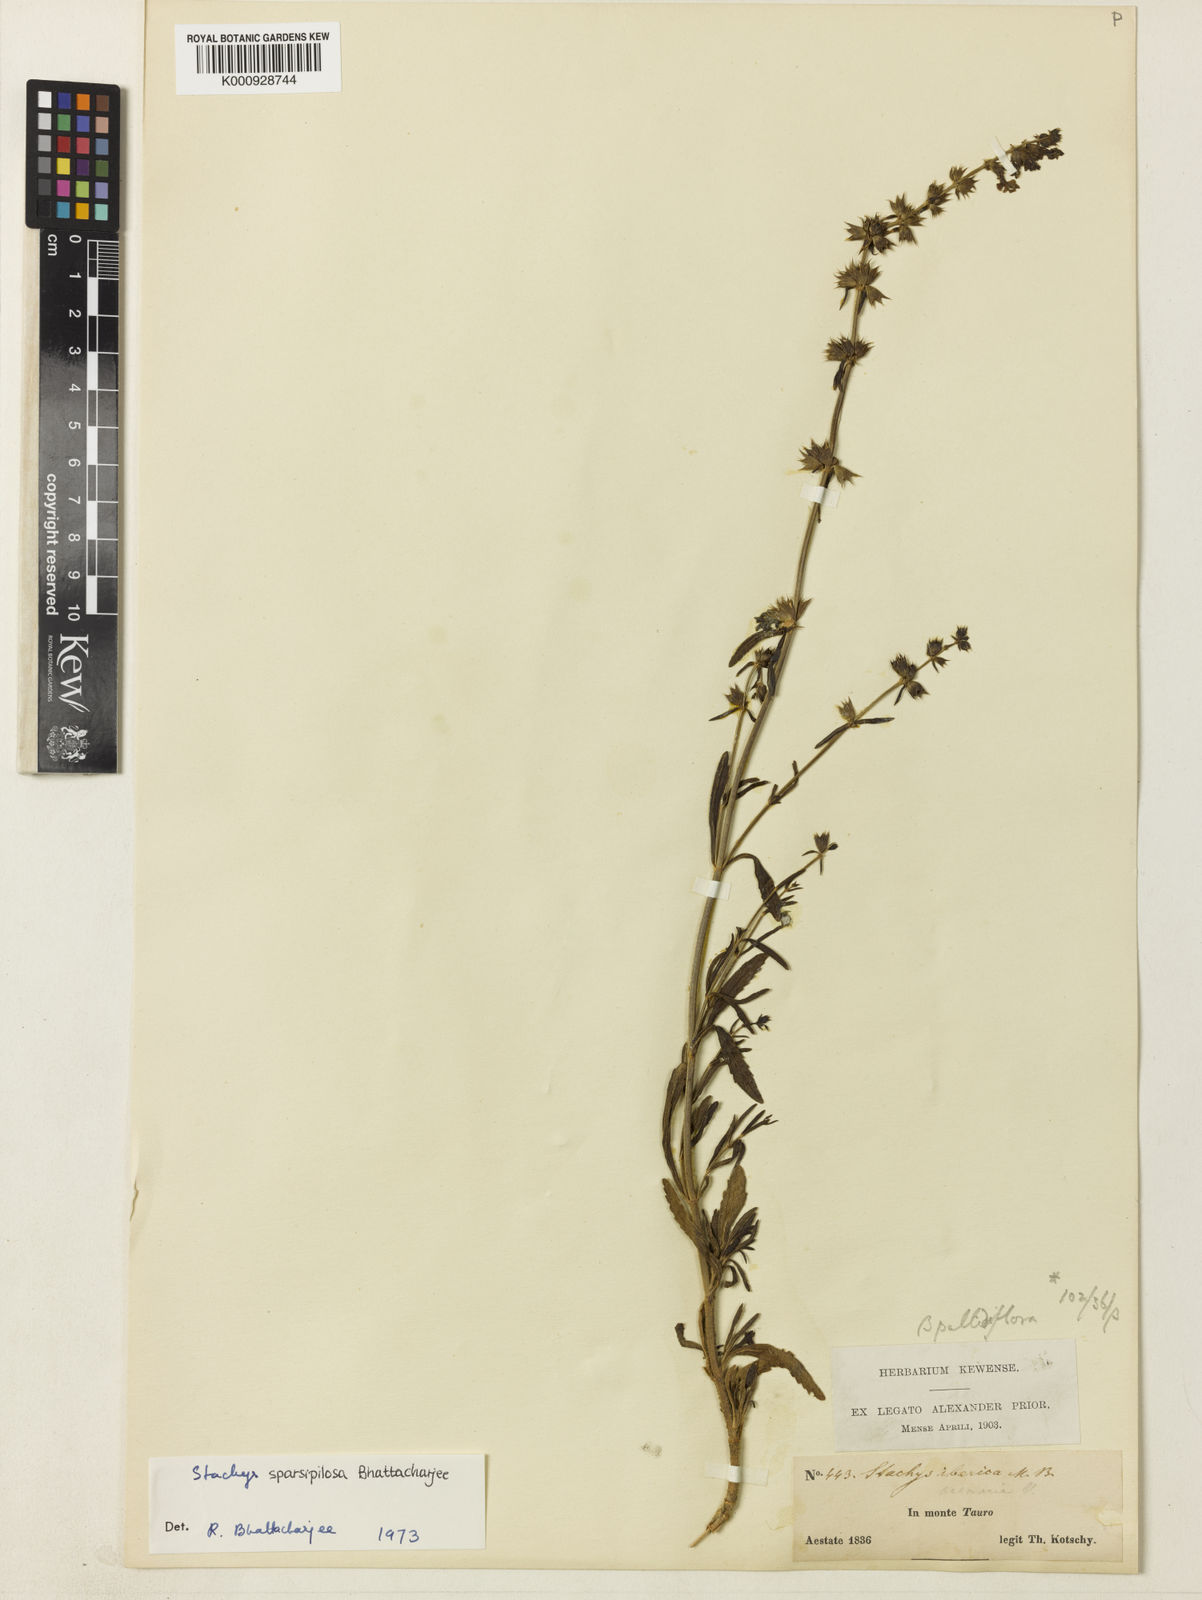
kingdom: Plantae
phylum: Tracheophyta
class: Magnoliopsida
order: Lamiales
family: Lamiaceae
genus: Stachys
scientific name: Stachys sparsipilosa
